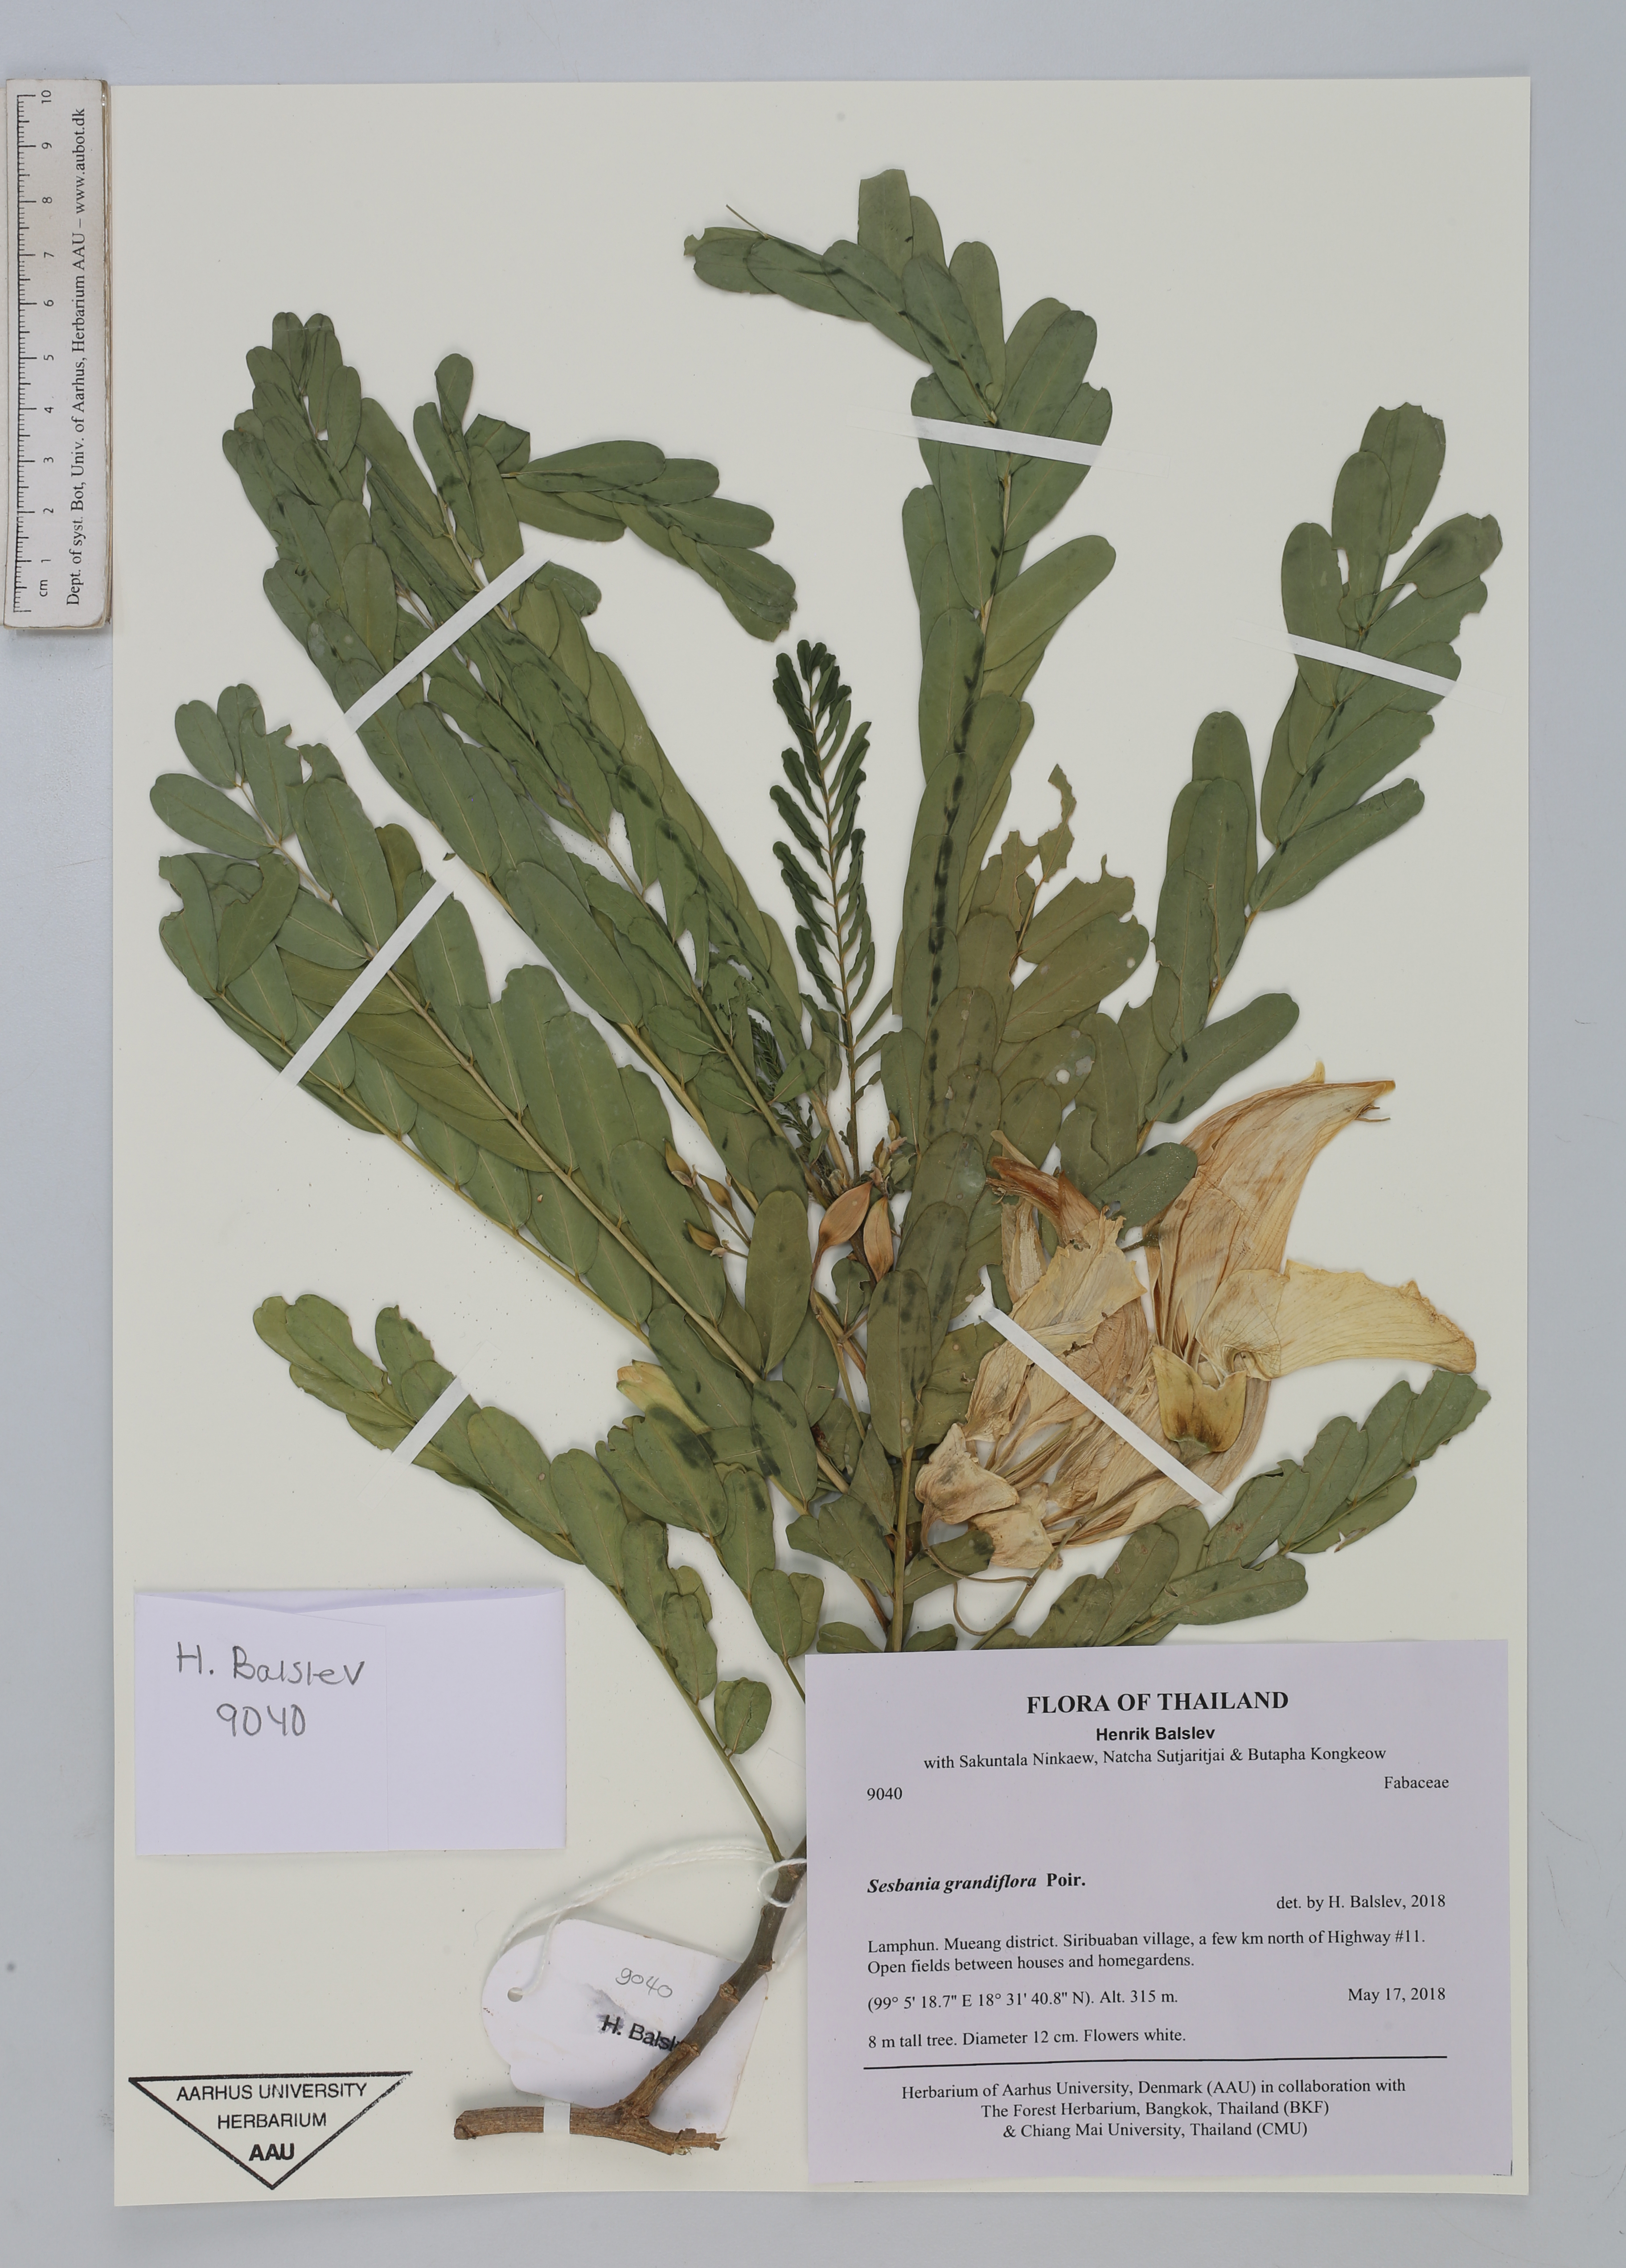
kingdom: Plantae
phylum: Tracheophyta
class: Magnoliopsida
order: Fabales
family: Fabaceae
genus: Sesbania
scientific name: Sesbania grandiflora
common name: Vegetable-hummingbird
